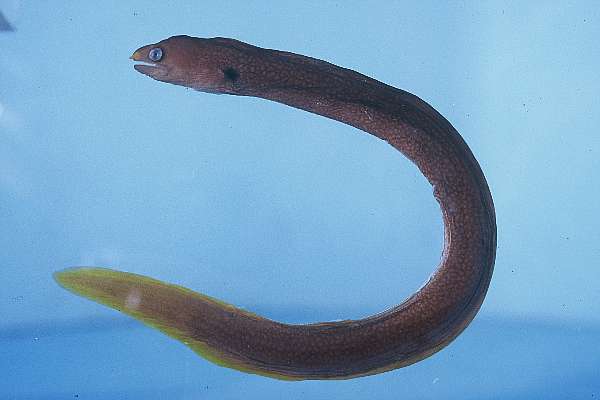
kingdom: Animalia
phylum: Chordata
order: Anguilliformes
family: Muraenidae
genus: Gymnothorax
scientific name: Gymnothorax melatremus
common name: Dwarf moray
